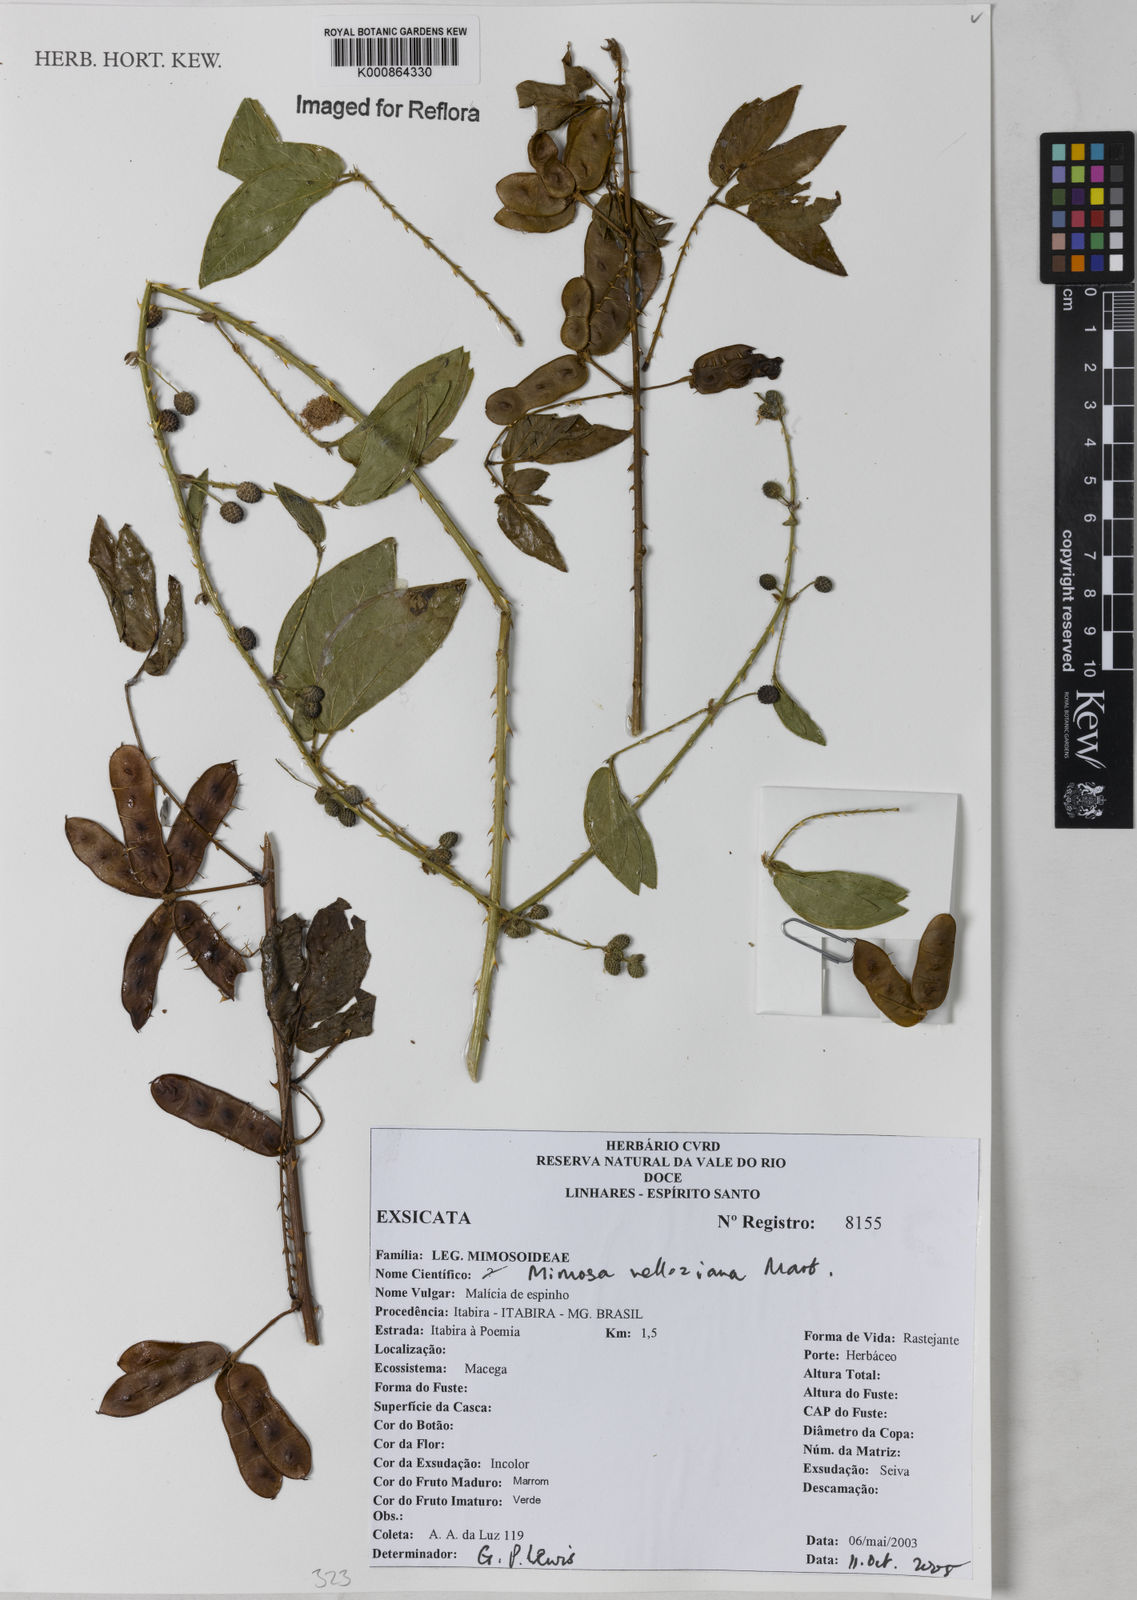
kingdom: Plantae
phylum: Tracheophyta
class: Magnoliopsida
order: Fabales
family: Fabaceae
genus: Mimosa
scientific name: Mimosa velloziana
